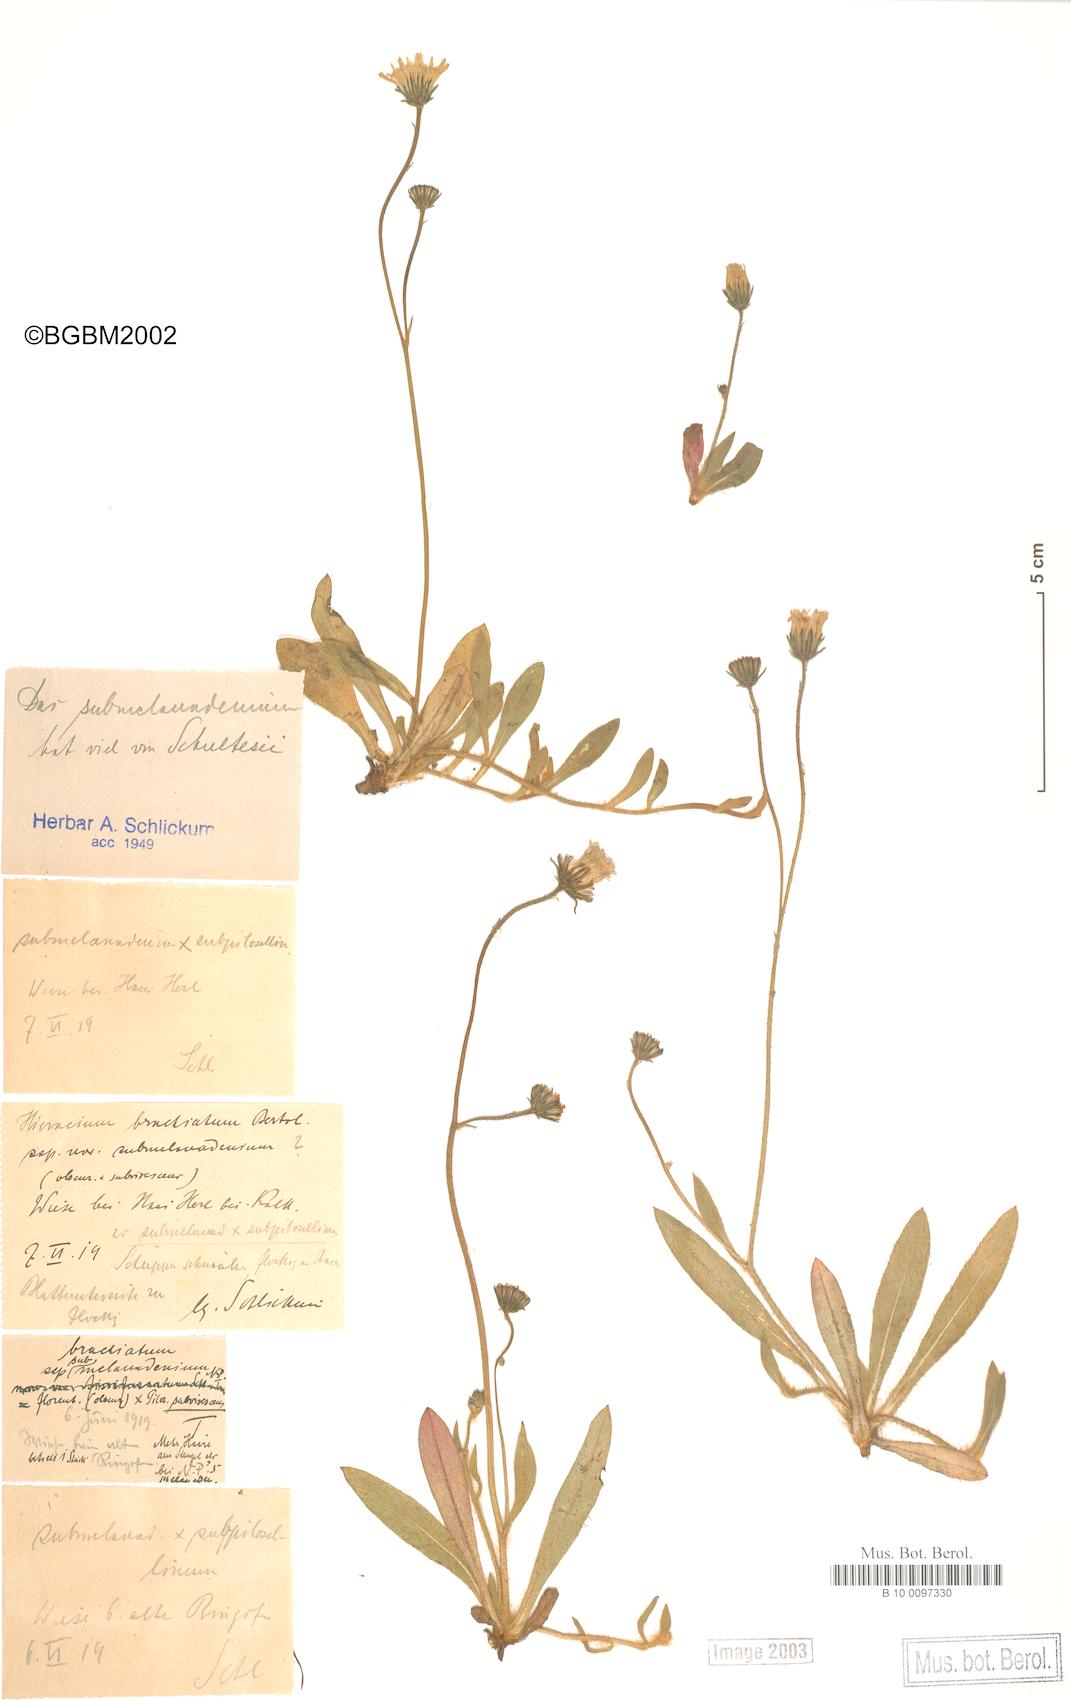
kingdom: Plantae
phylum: Tracheophyta
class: Magnoliopsida
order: Asterales
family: Asteraceae
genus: Pilosella
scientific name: Pilosella acutifolia
